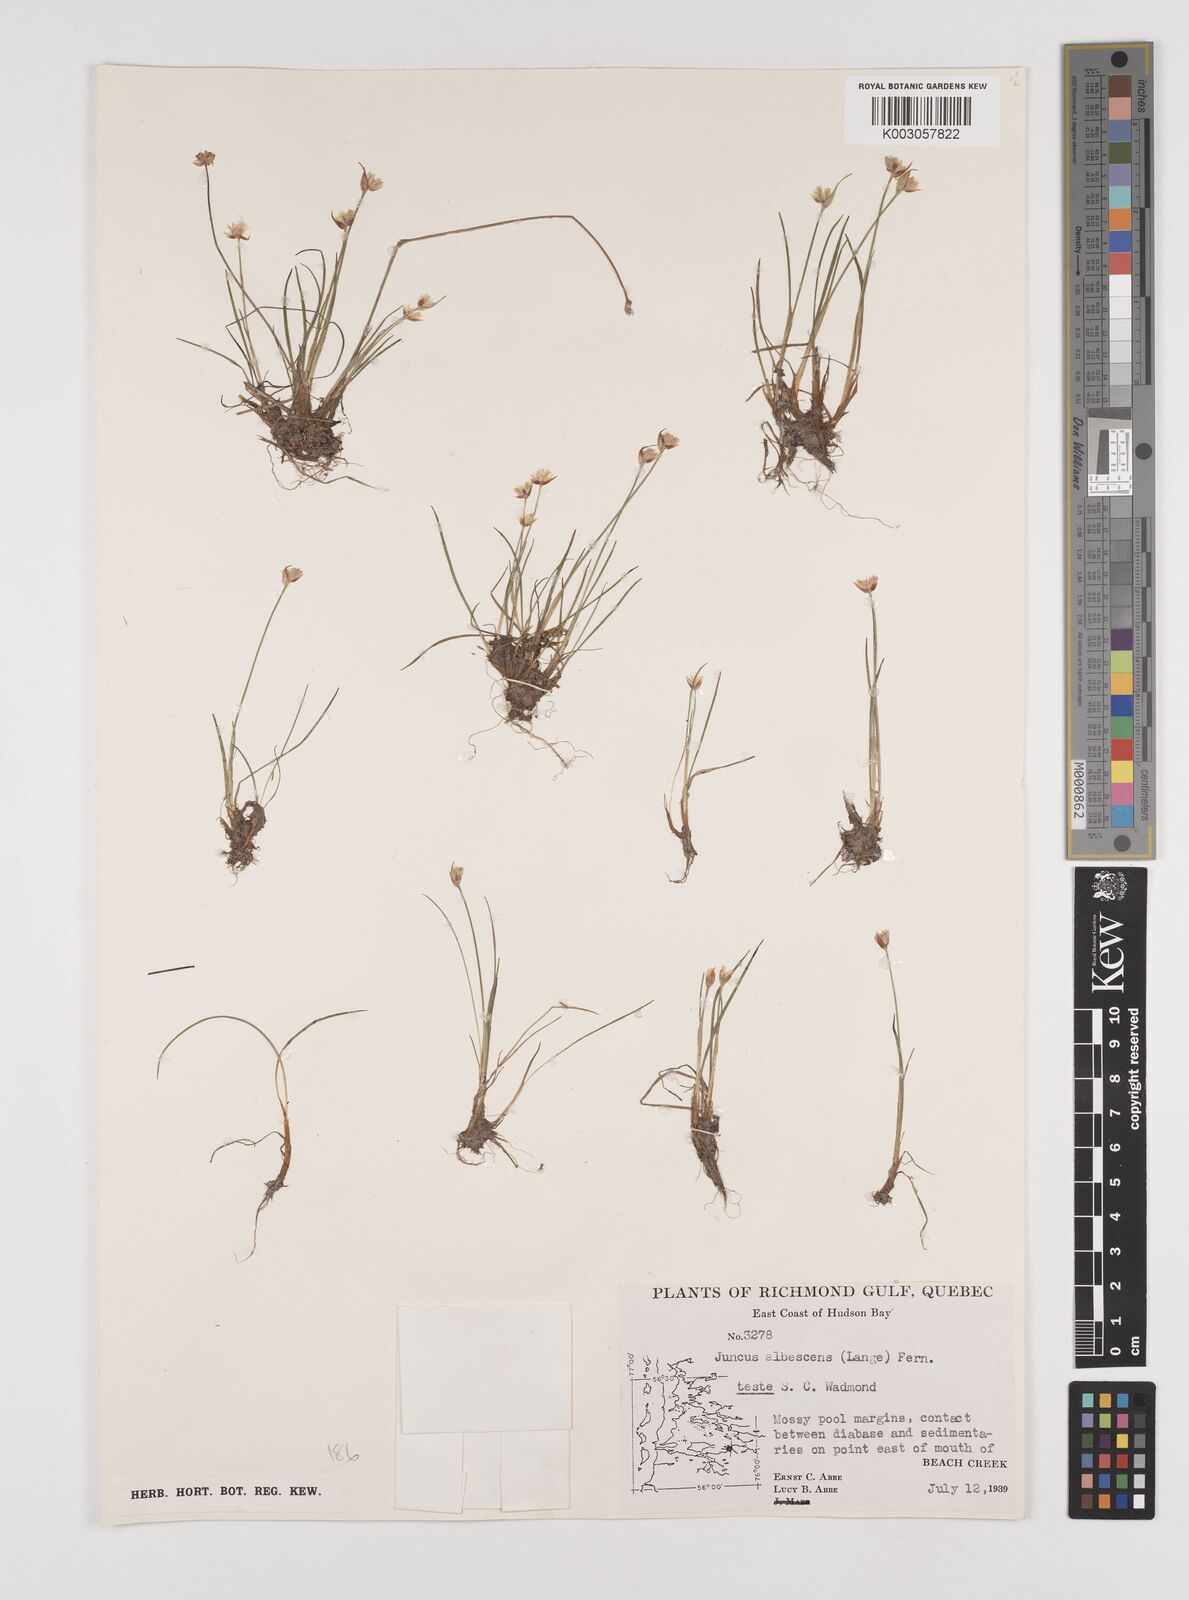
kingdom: Plantae
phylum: Tracheophyta
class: Liliopsida
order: Poales
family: Juncaceae
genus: Juncus
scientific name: Juncus albescens
